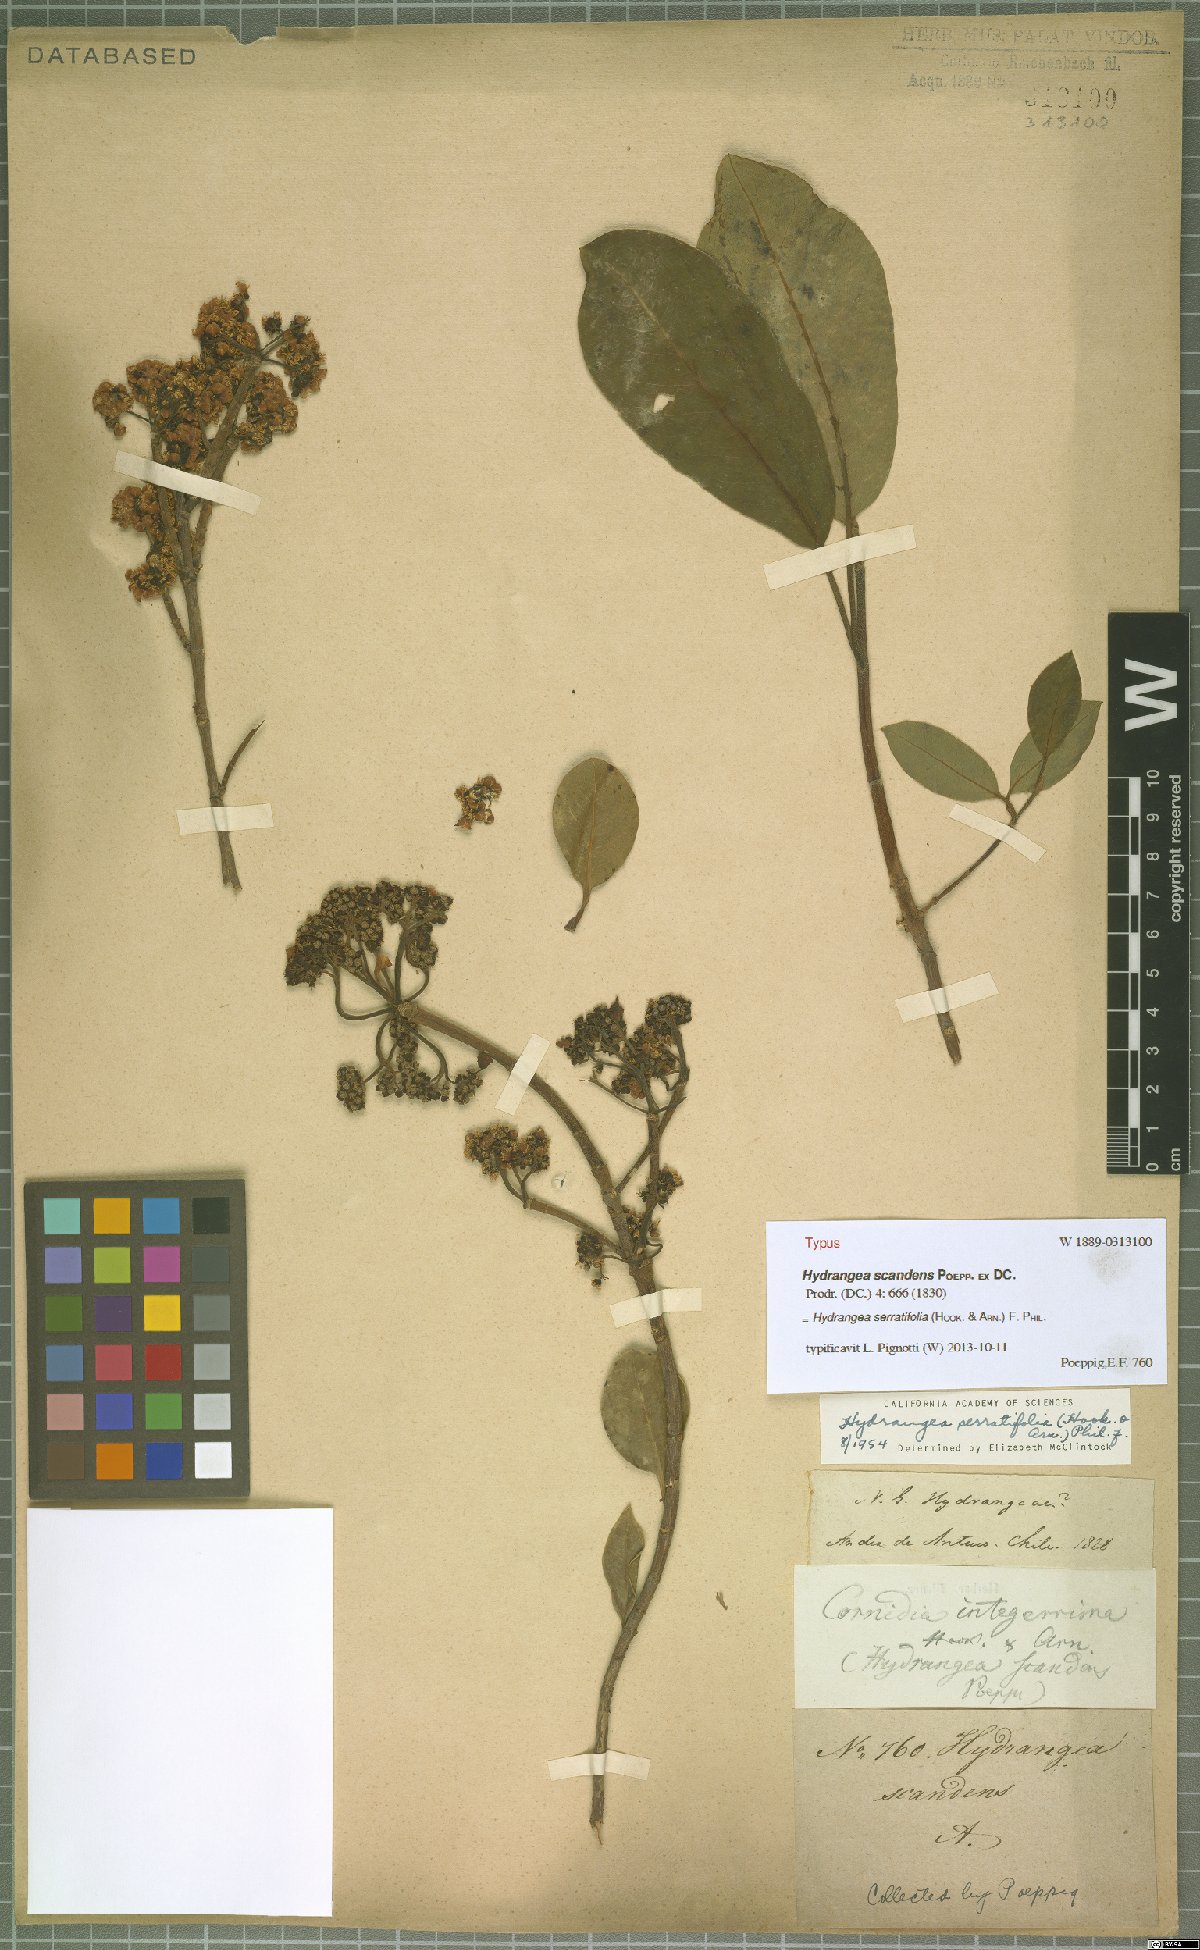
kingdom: Plantae
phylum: Tracheophyta
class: Magnoliopsida
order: Cornales
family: Hydrangeaceae
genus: Hydrangea
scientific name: Hydrangea serratifolia
